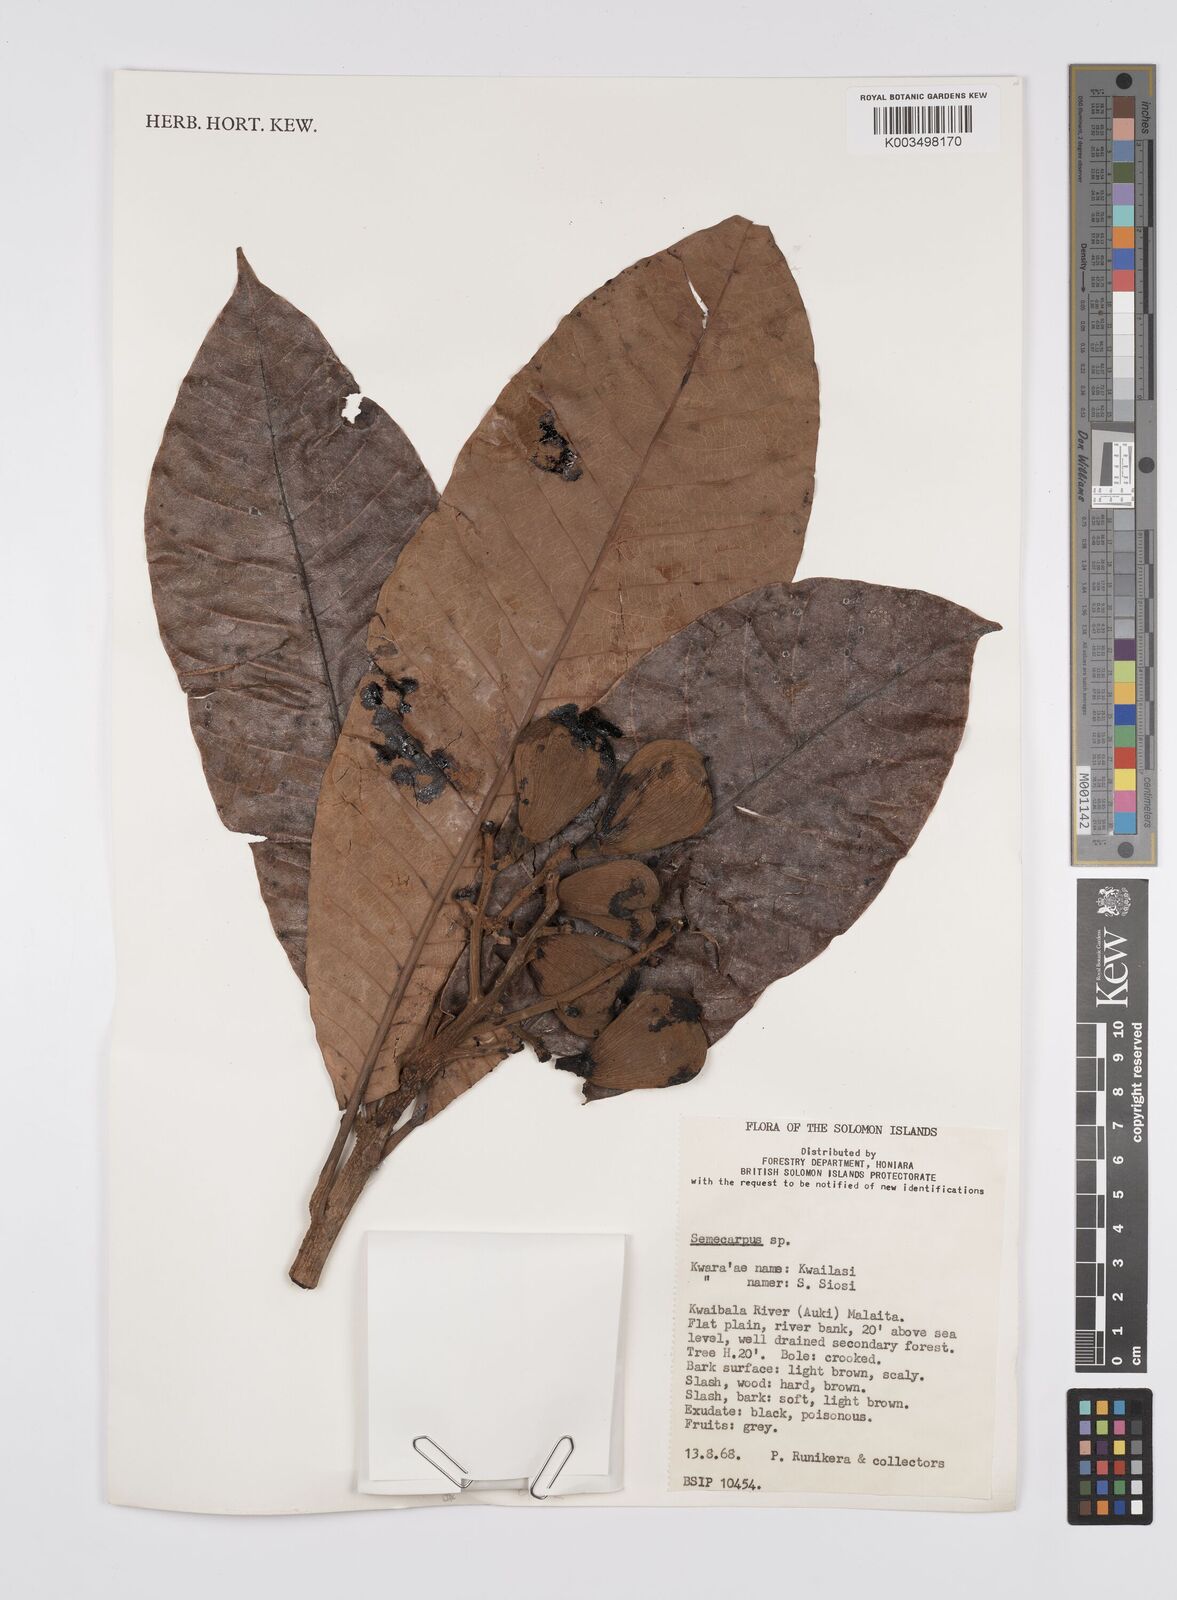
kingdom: Plantae
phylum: Tracheophyta
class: Magnoliopsida
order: Sapindales
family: Anacardiaceae
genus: Semecarpus
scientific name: Semecarpus
